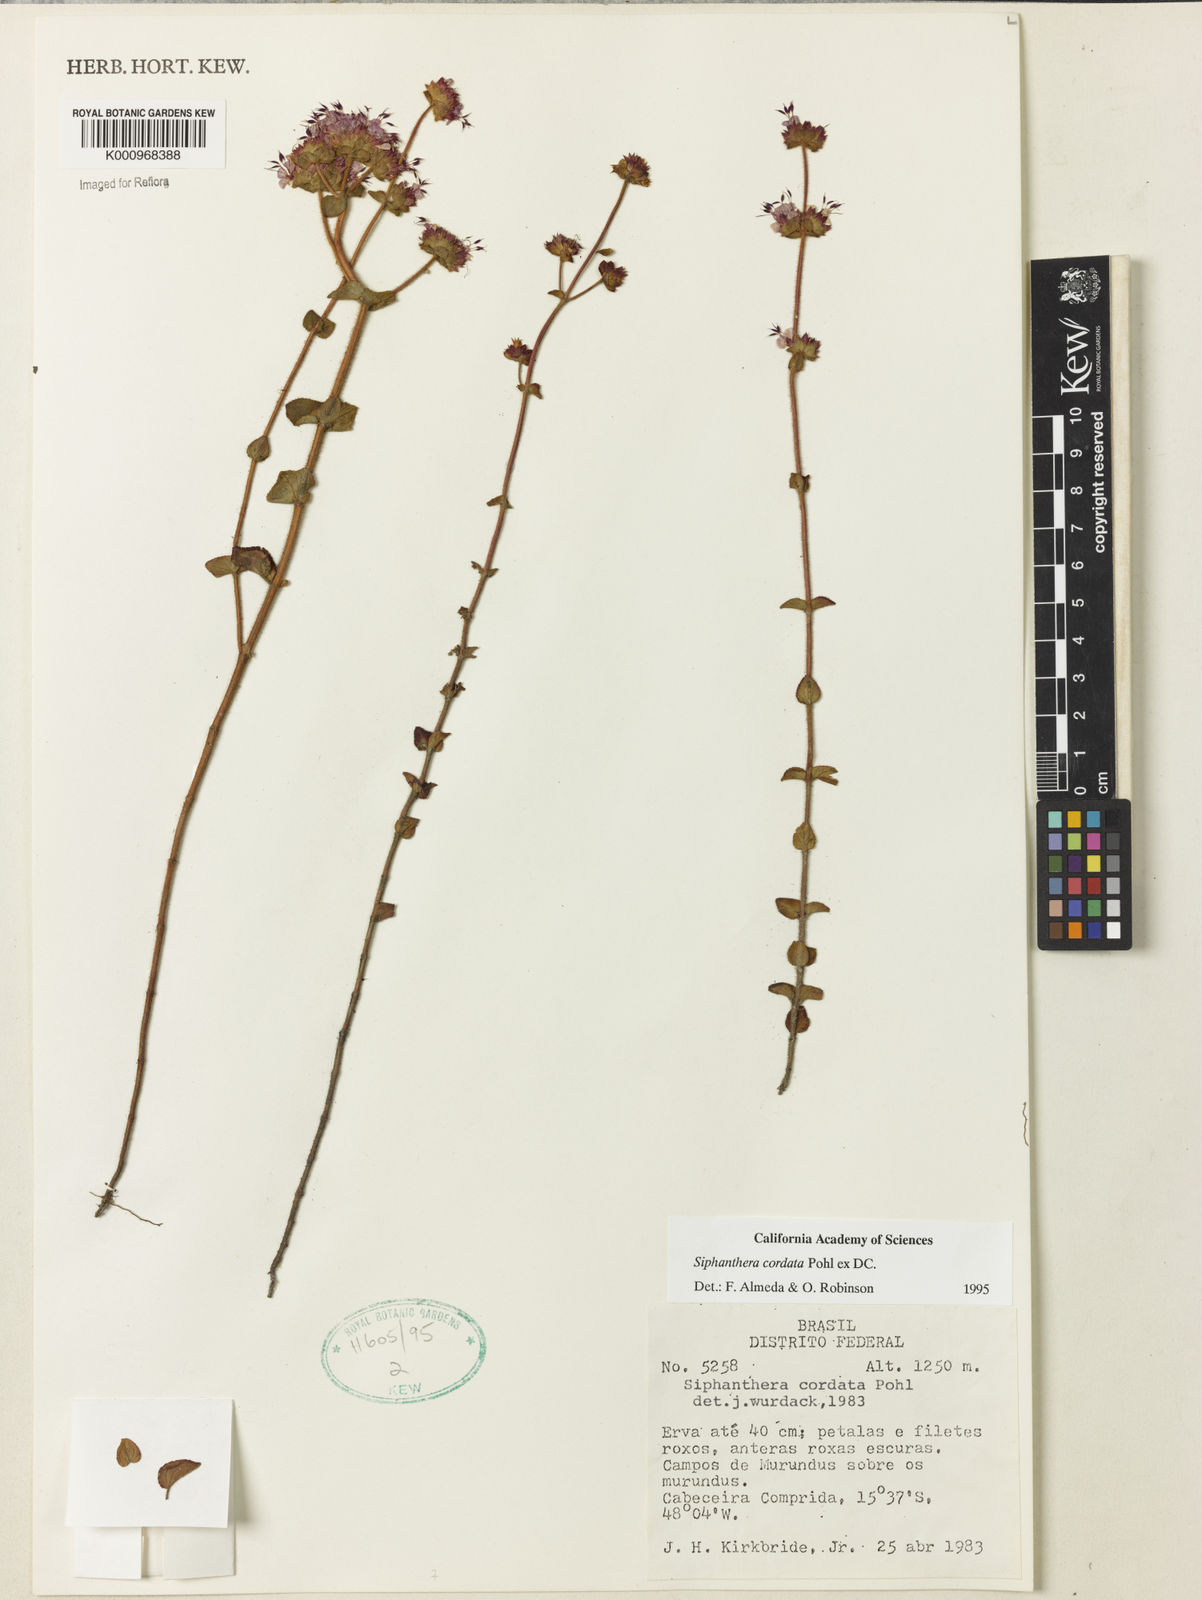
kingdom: Plantae
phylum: Tracheophyta
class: Magnoliopsida
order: Myrtales
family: Melastomataceae
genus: Siphanthera
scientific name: Siphanthera
